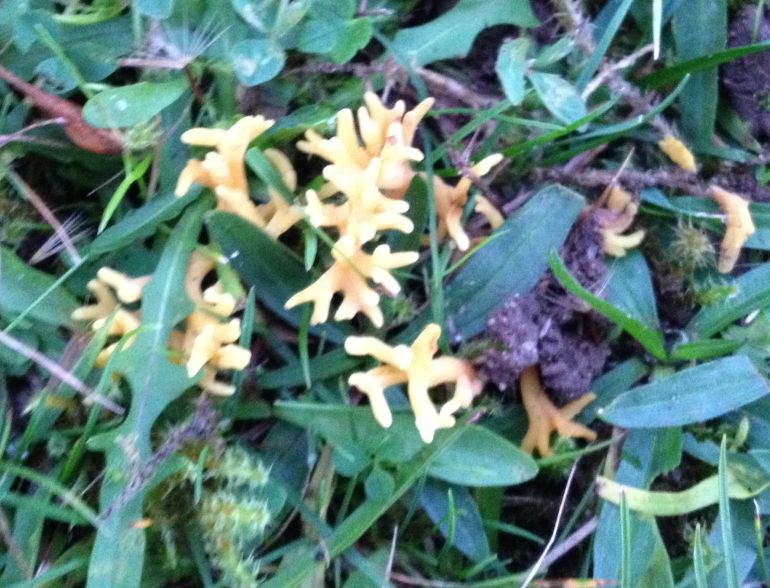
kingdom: Fungi
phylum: Basidiomycota
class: Agaricomycetes
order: Agaricales
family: Clavariaceae
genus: Clavulinopsis
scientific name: Clavulinopsis corniculata
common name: eng-køllesvamp
